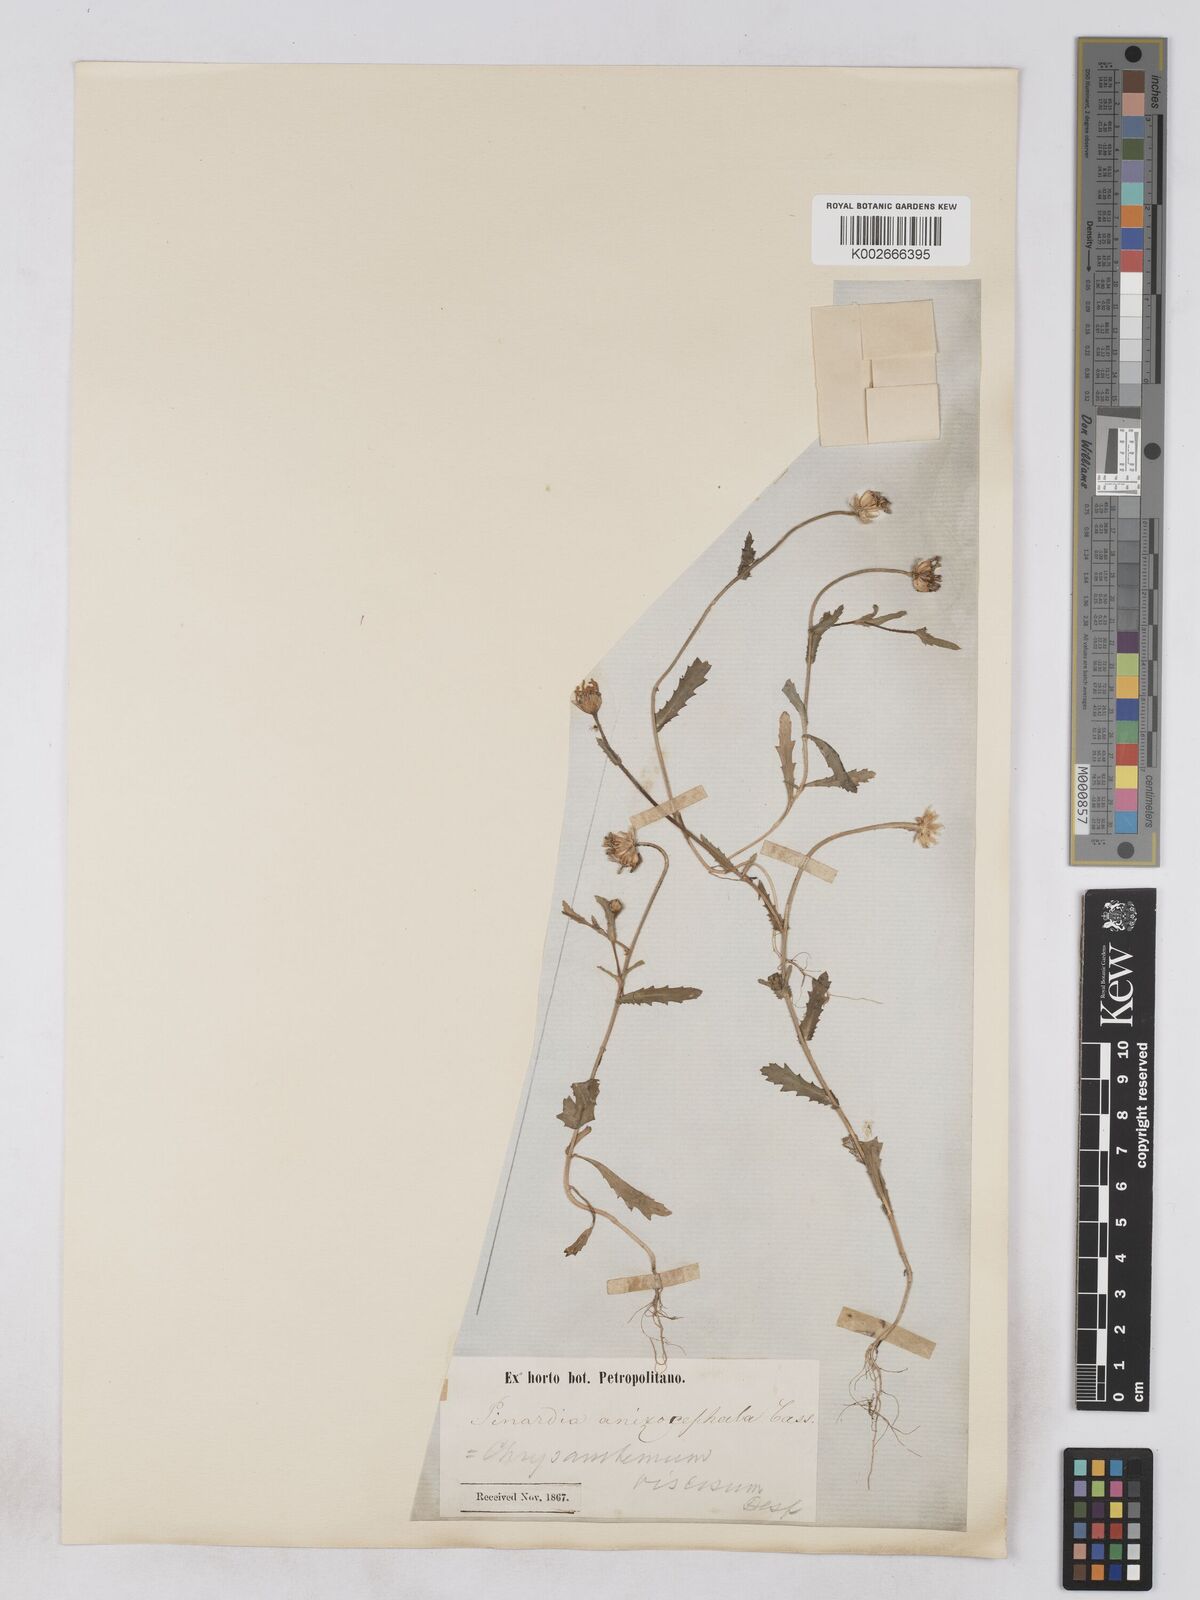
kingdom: Plantae
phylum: Tracheophyta
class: Magnoliopsida
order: Asterales
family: Asteraceae
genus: Heteranthemis
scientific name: Heteranthemis
